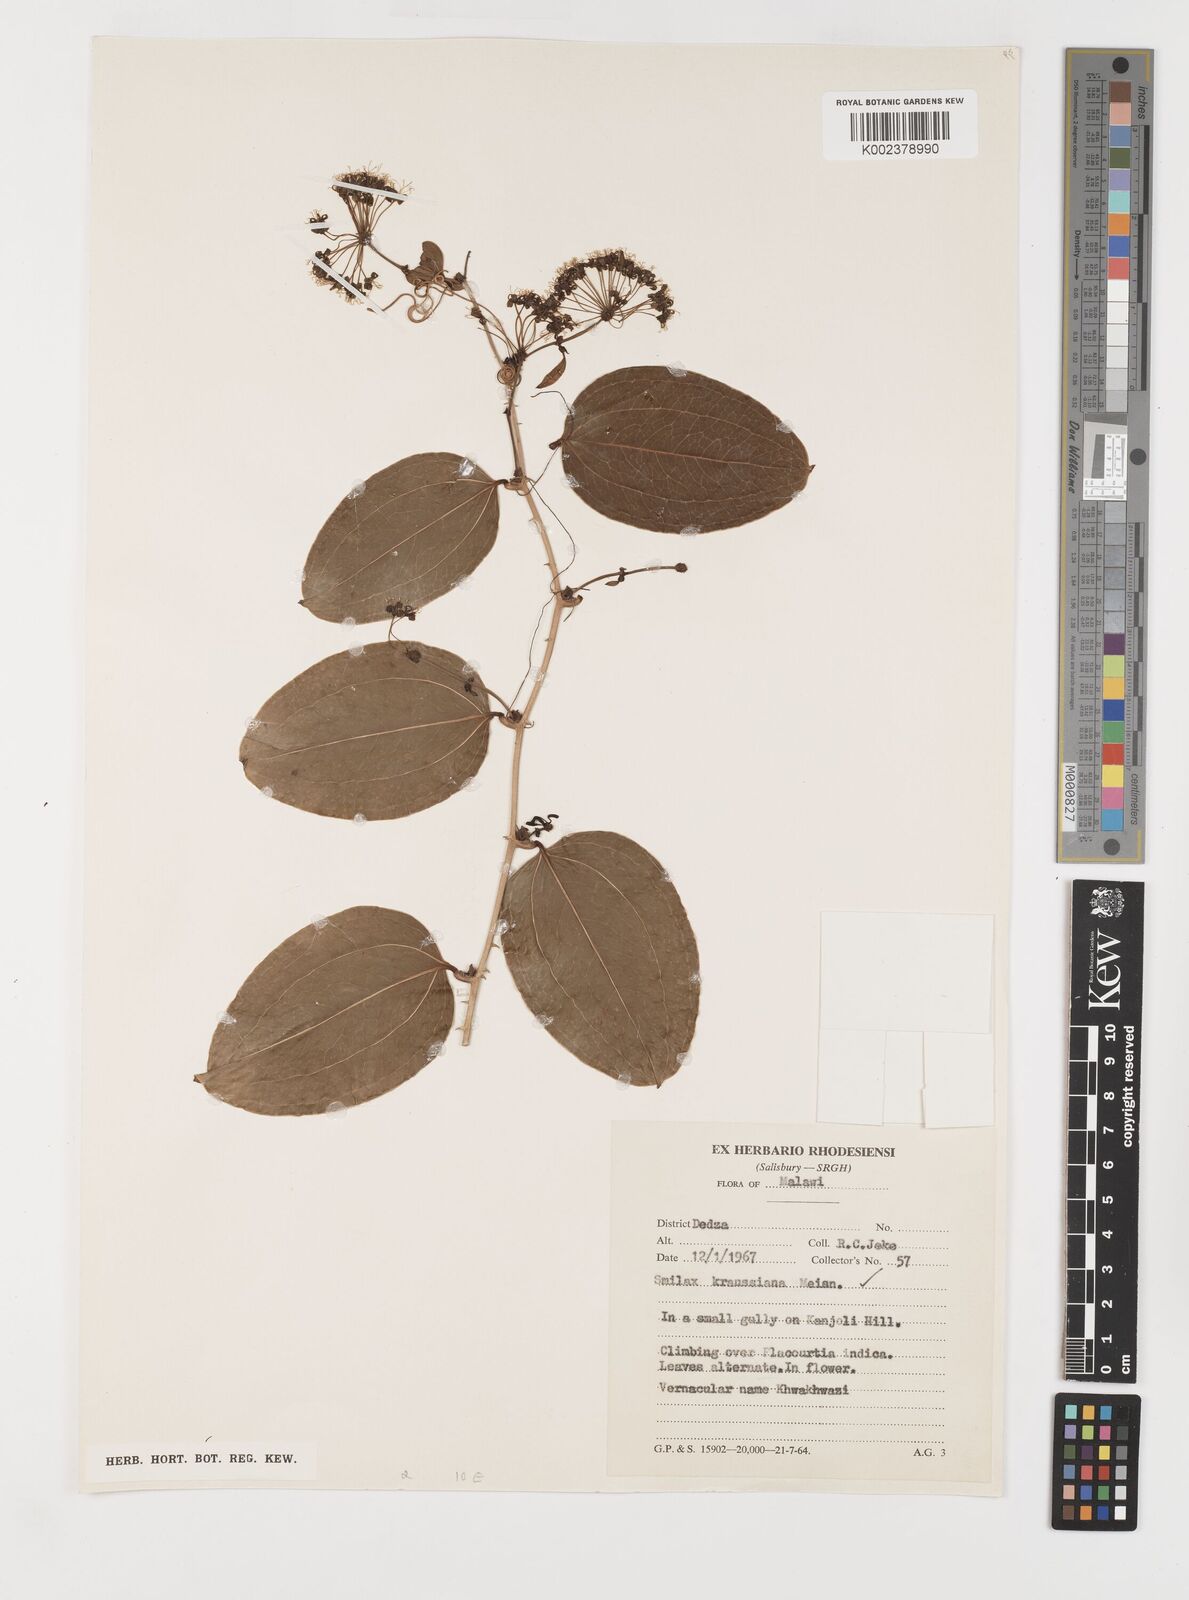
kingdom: Plantae
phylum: Tracheophyta
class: Liliopsida
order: Liliales
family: Smilacaceae
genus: Smilax
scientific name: Smilax anceps
